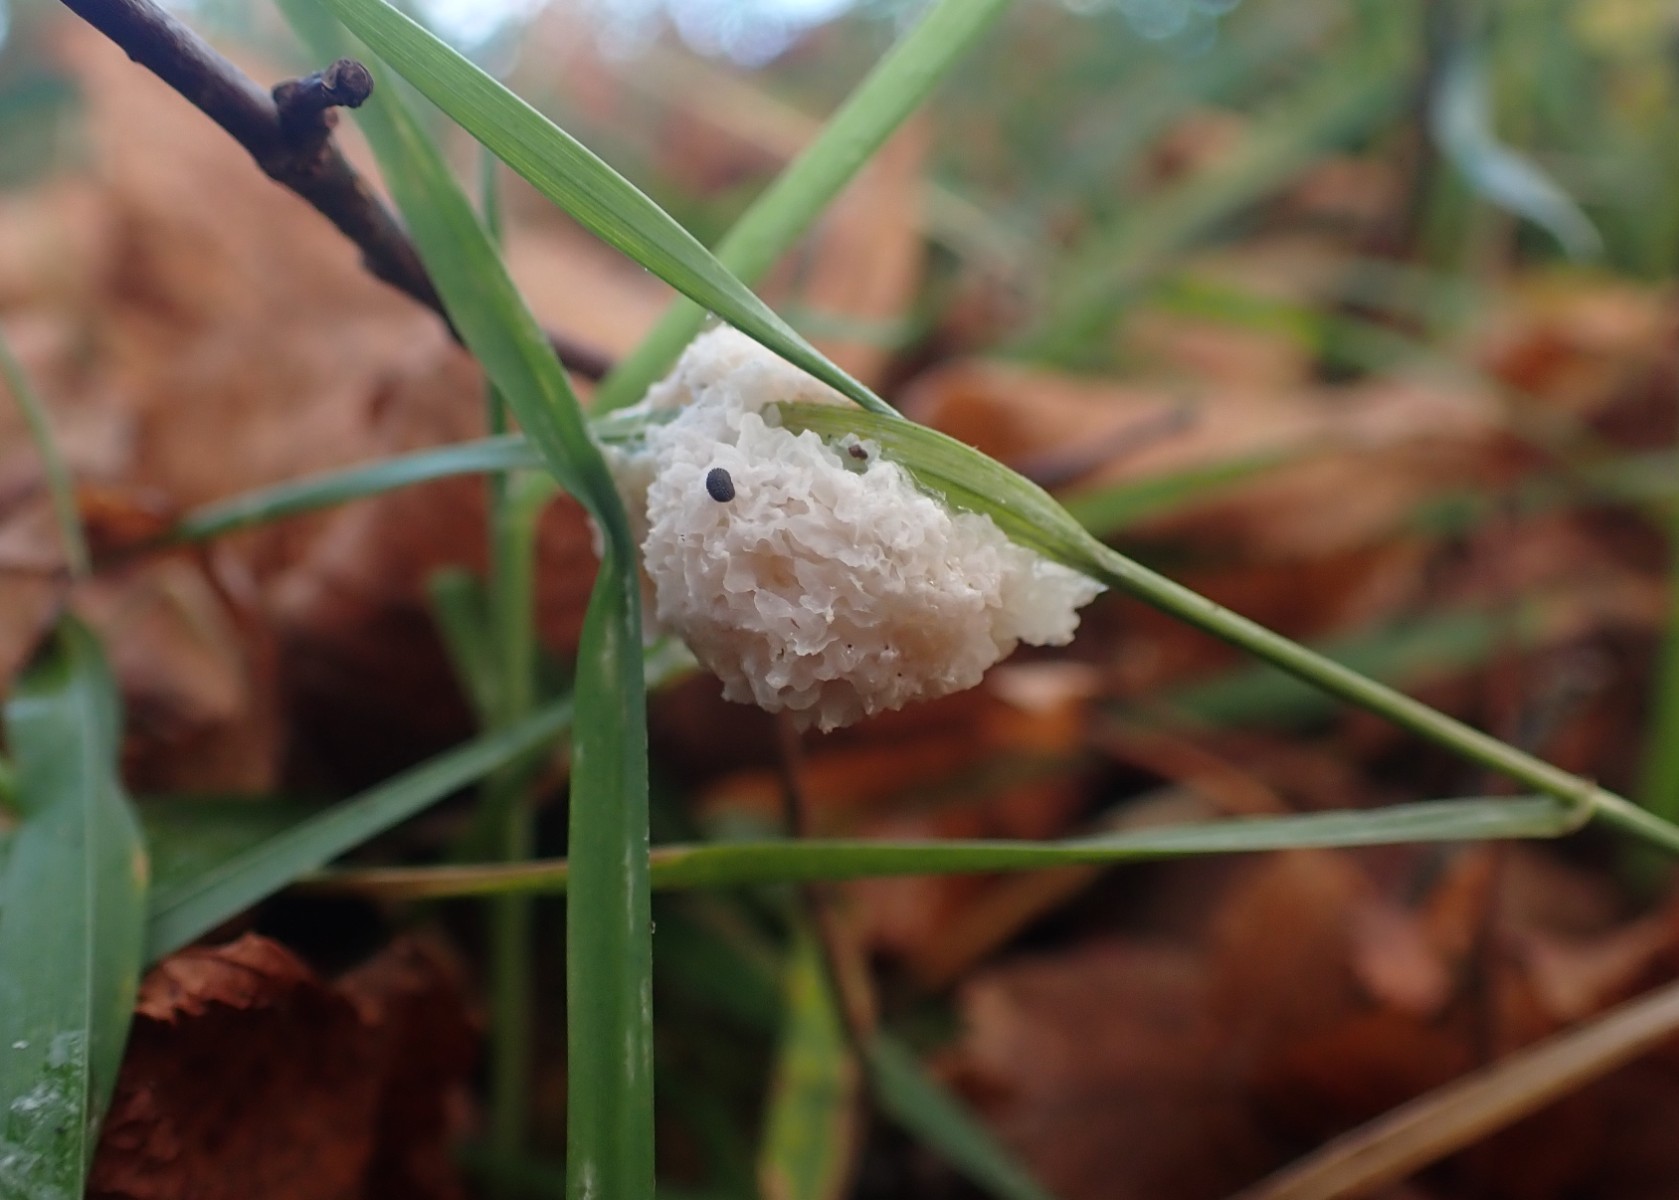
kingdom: Protozoa
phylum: Mycetozoa
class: Myxomycetes
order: Physarales
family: Physaraceae
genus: Didymium
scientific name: Didymium
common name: urteskum
